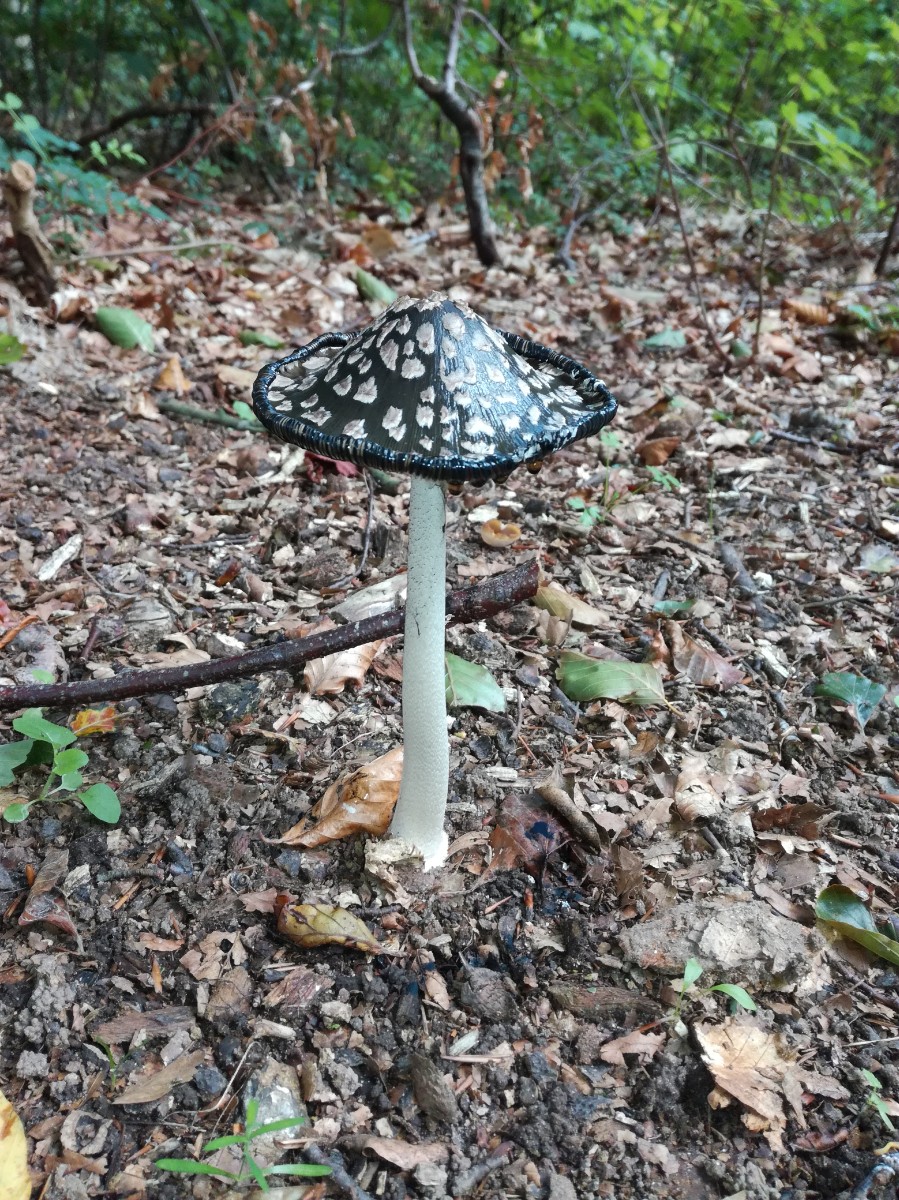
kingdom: Fungi
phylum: Basidiomycota
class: Agaricomycetes
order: Agaricales
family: Psathyrellaceae
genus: Coprinopsis
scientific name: Coprinopsis picacea
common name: skade-blækhat
